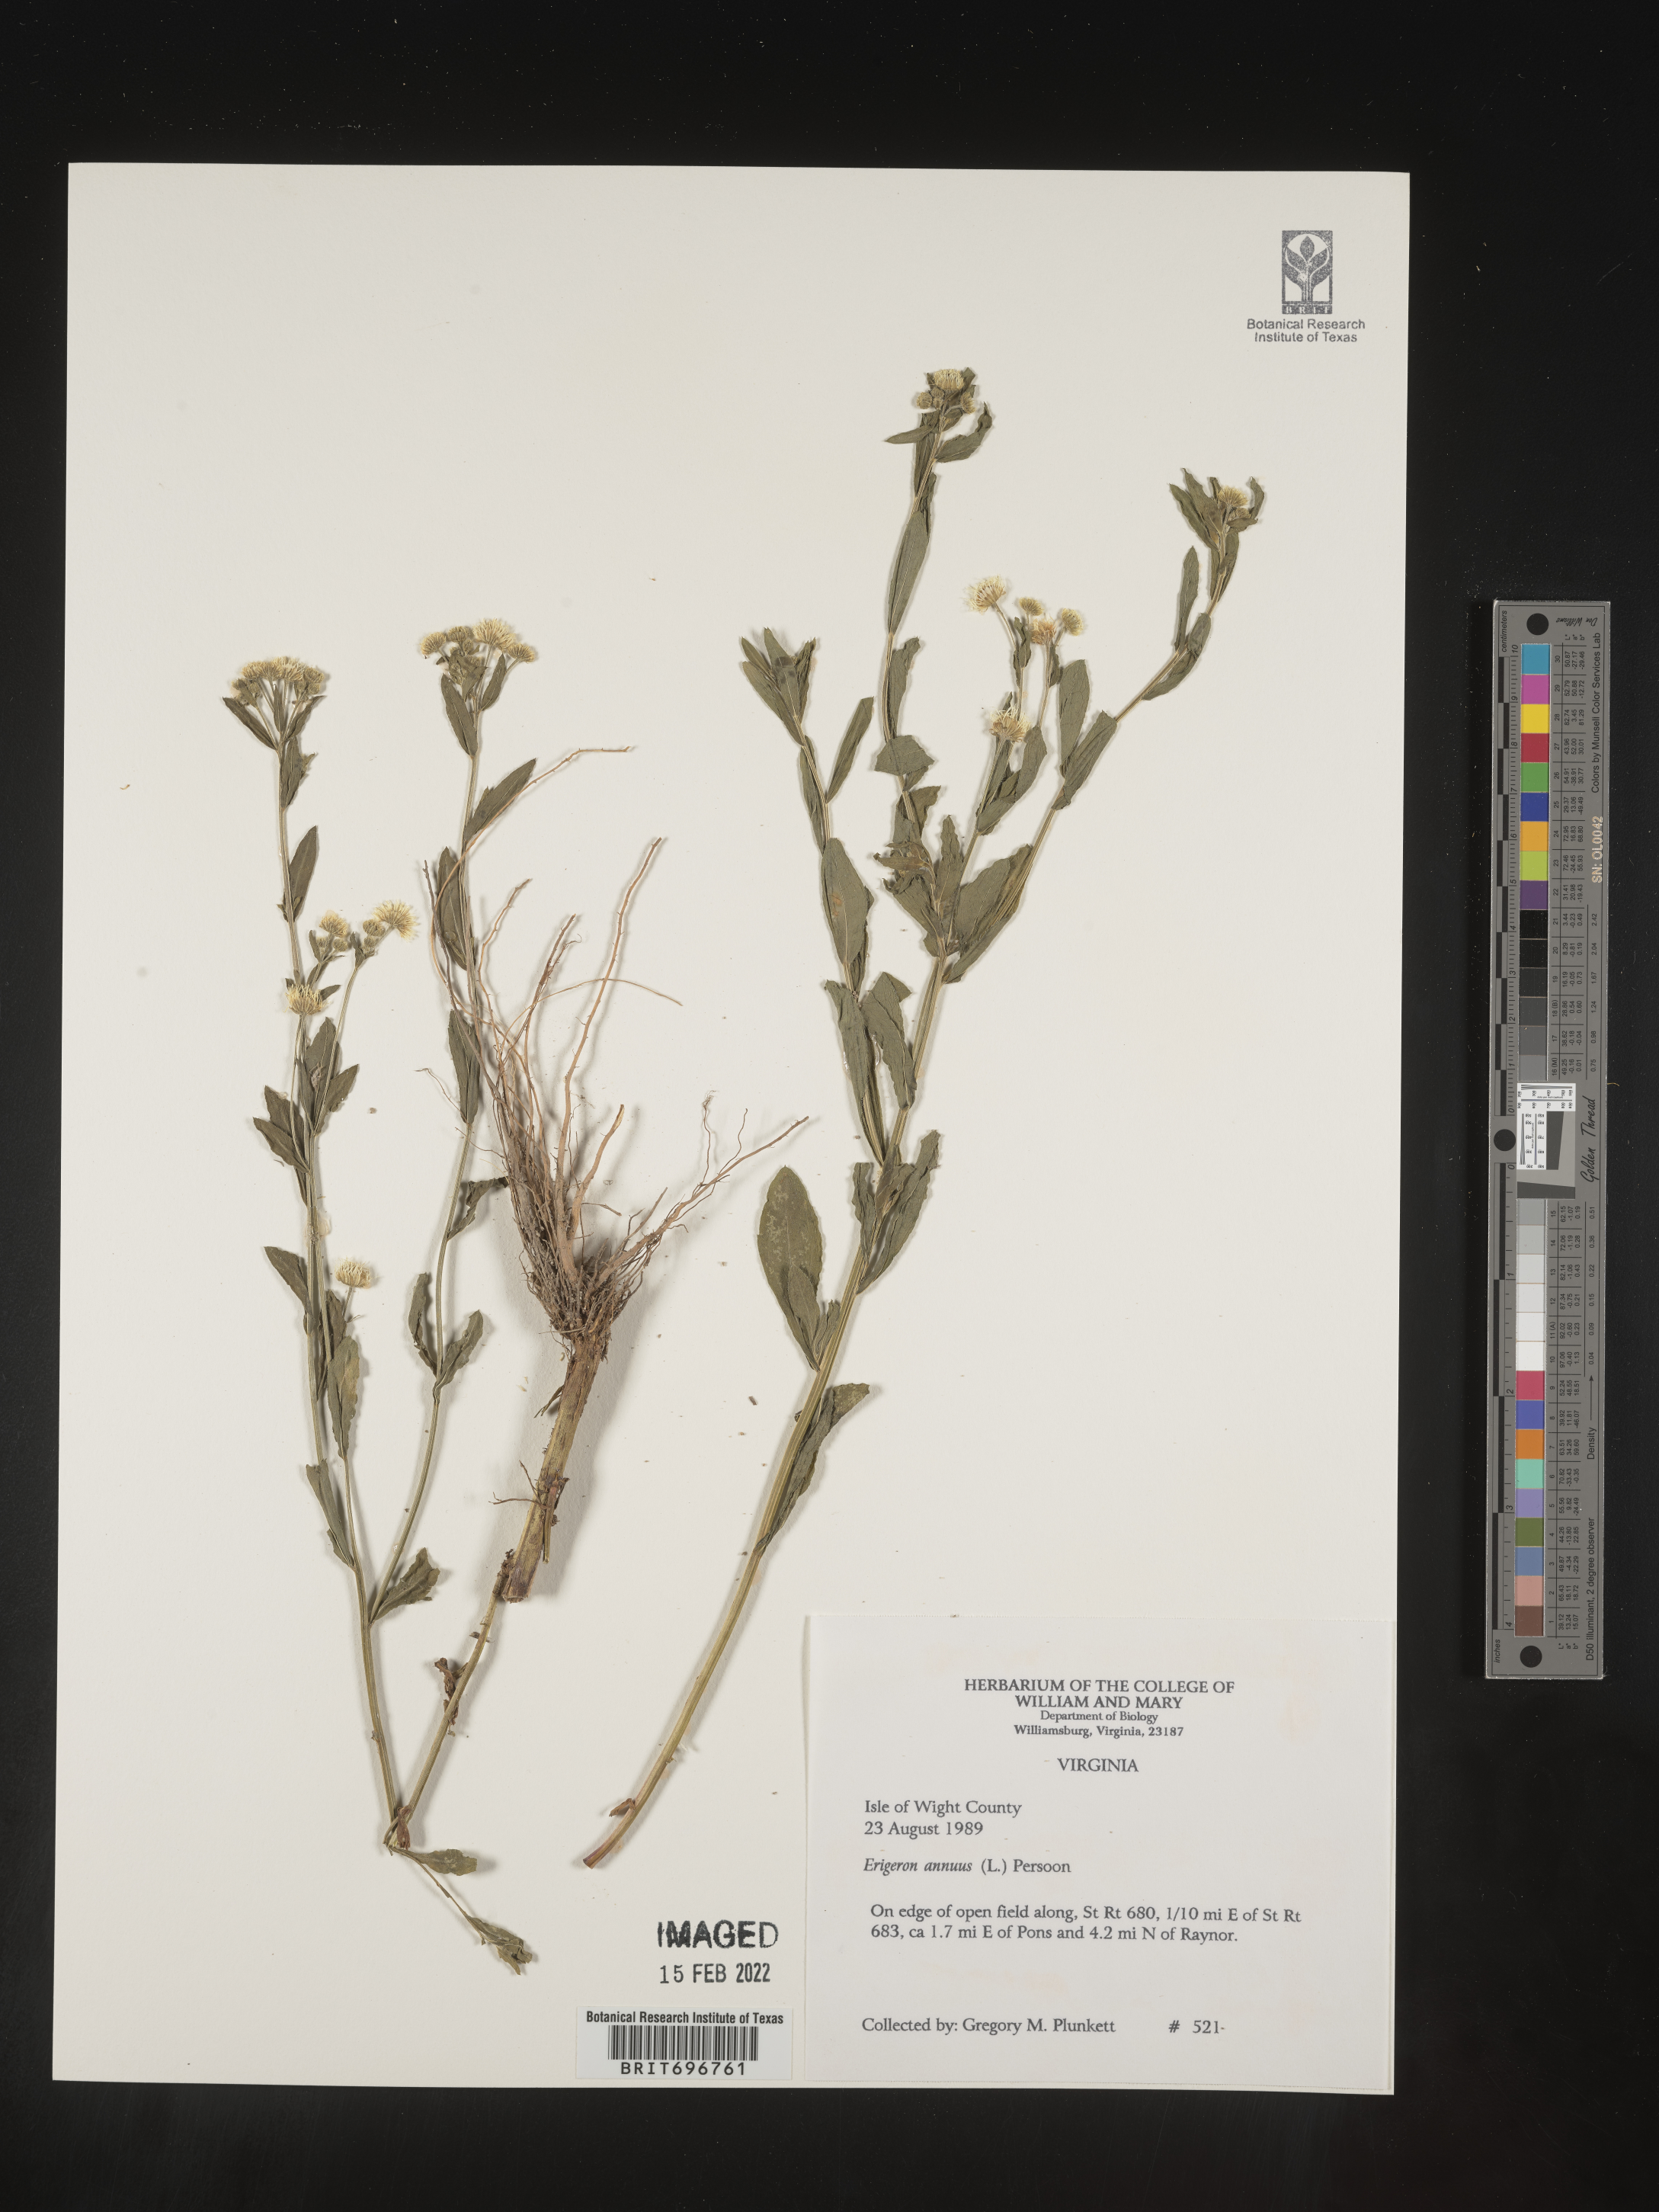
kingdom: Plantae
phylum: Tracheophyta
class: Magnoliopsida
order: Asterales
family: Asteraceae
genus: Erigeron
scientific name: Erigeron annuus
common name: Tall fleabane
